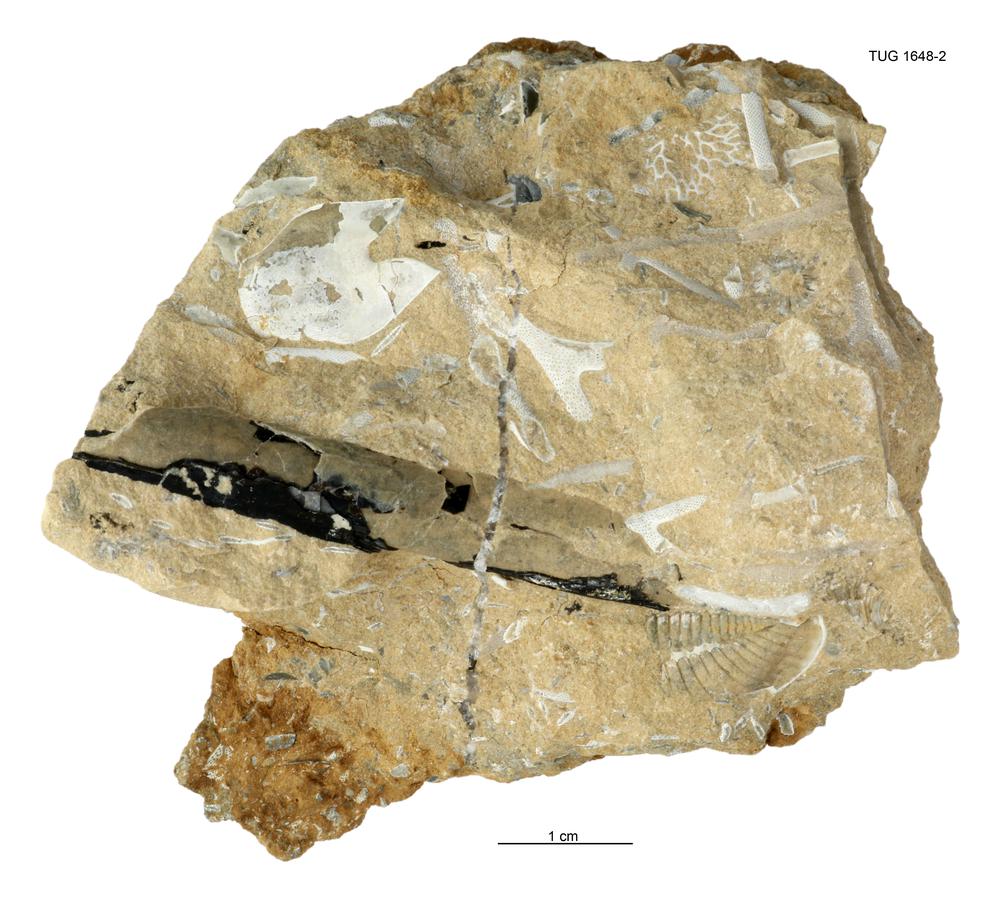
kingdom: Animalia
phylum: Cnidaria
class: Scyphozoa
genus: Sphenothallus
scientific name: Sphenothallus
